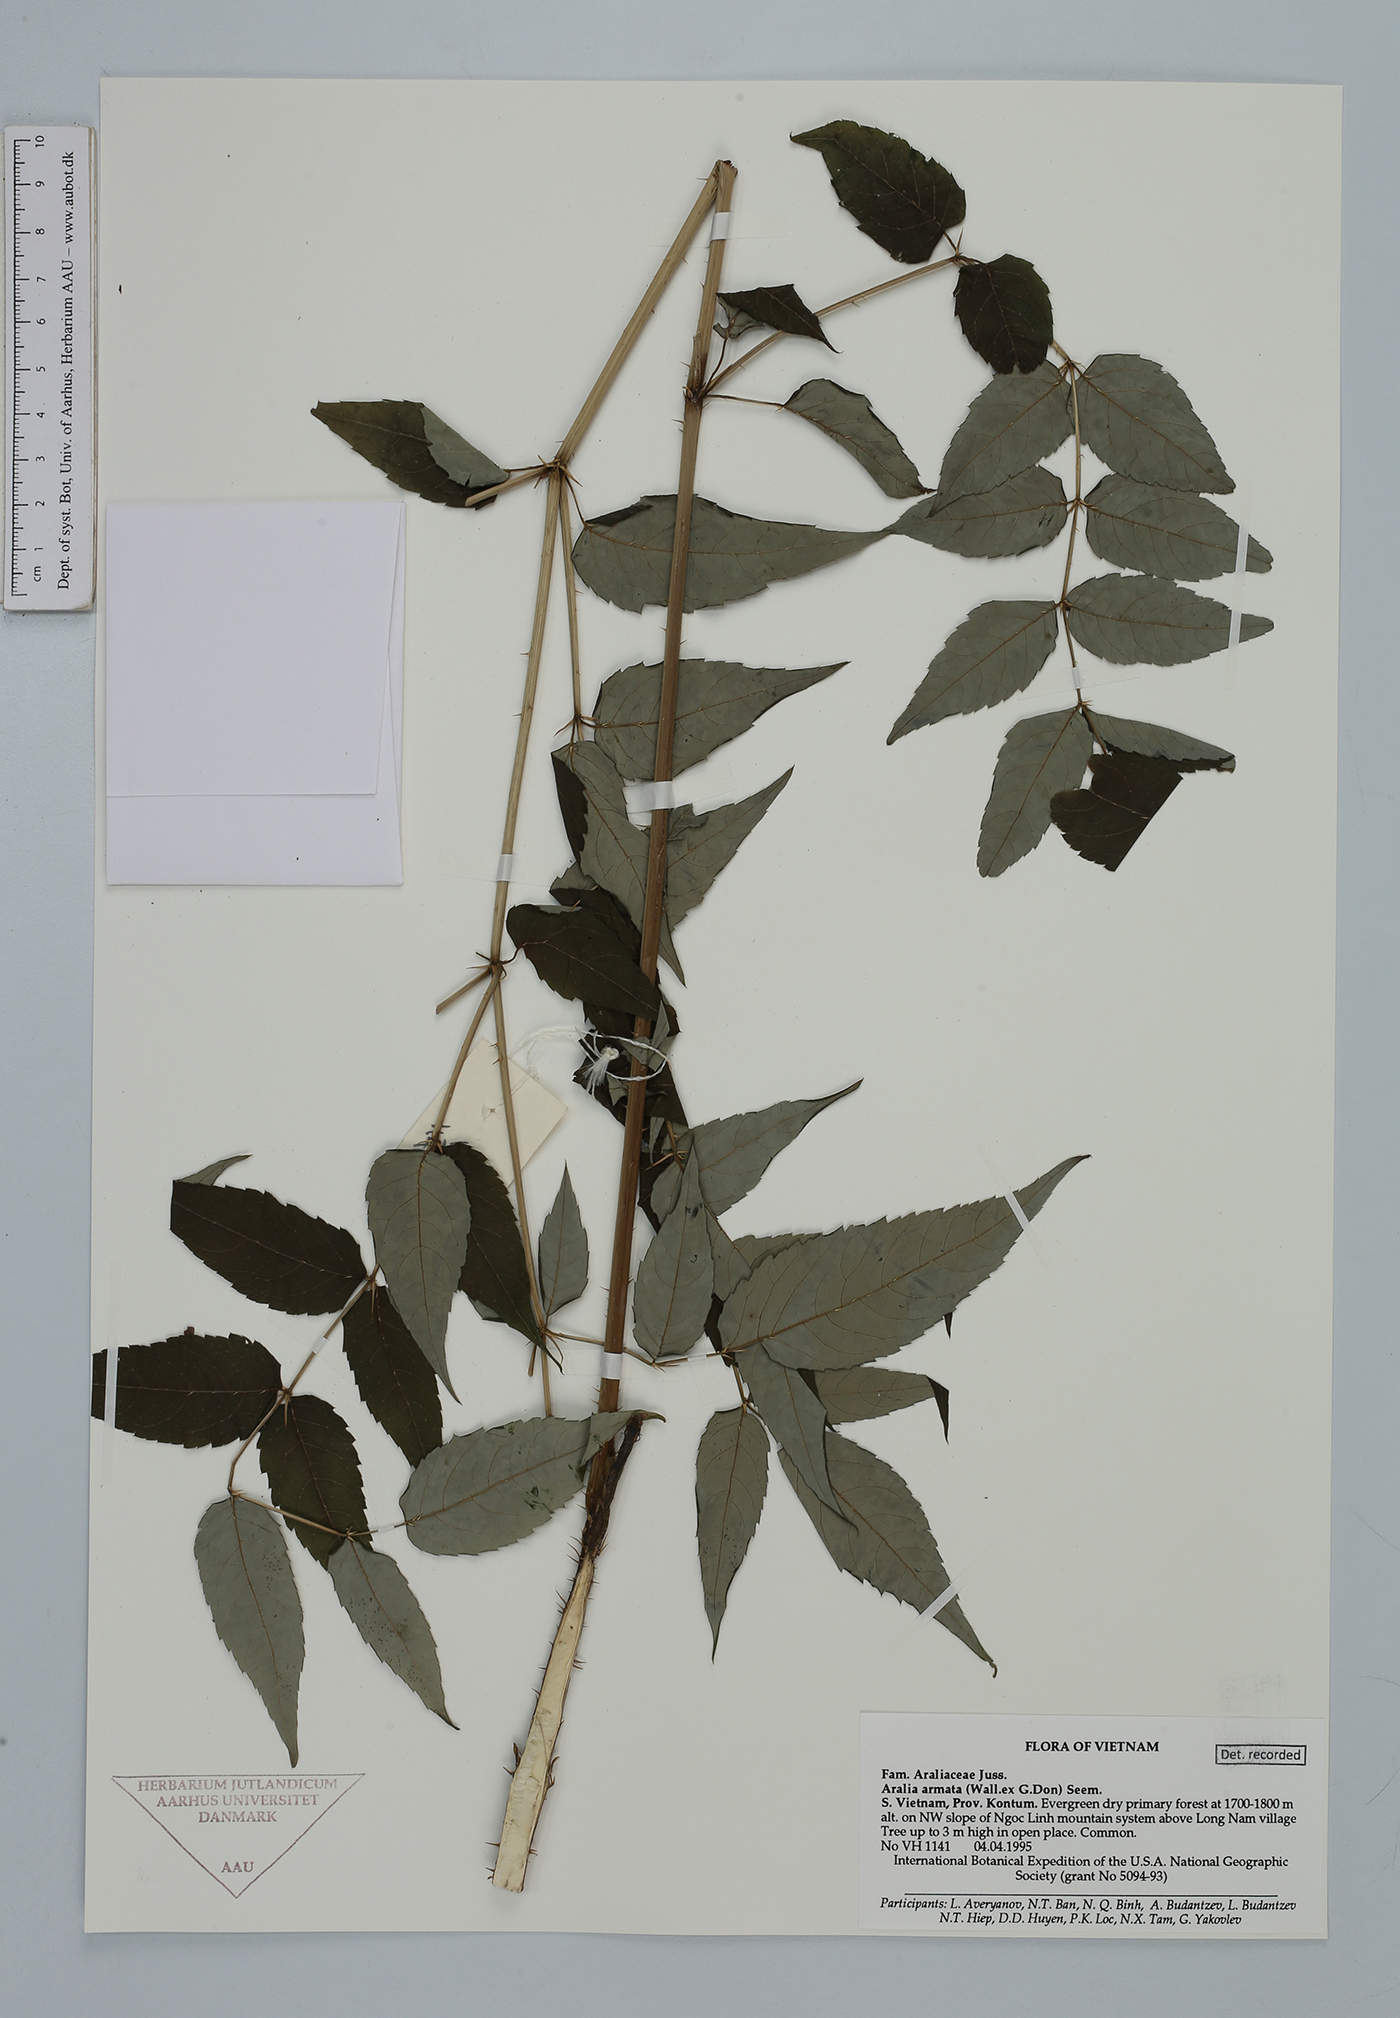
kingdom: Plantae
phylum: Tracheophyta
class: Magnoliopsida
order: Apiales
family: Araliaceae
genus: Aralia
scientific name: Aralia armata
